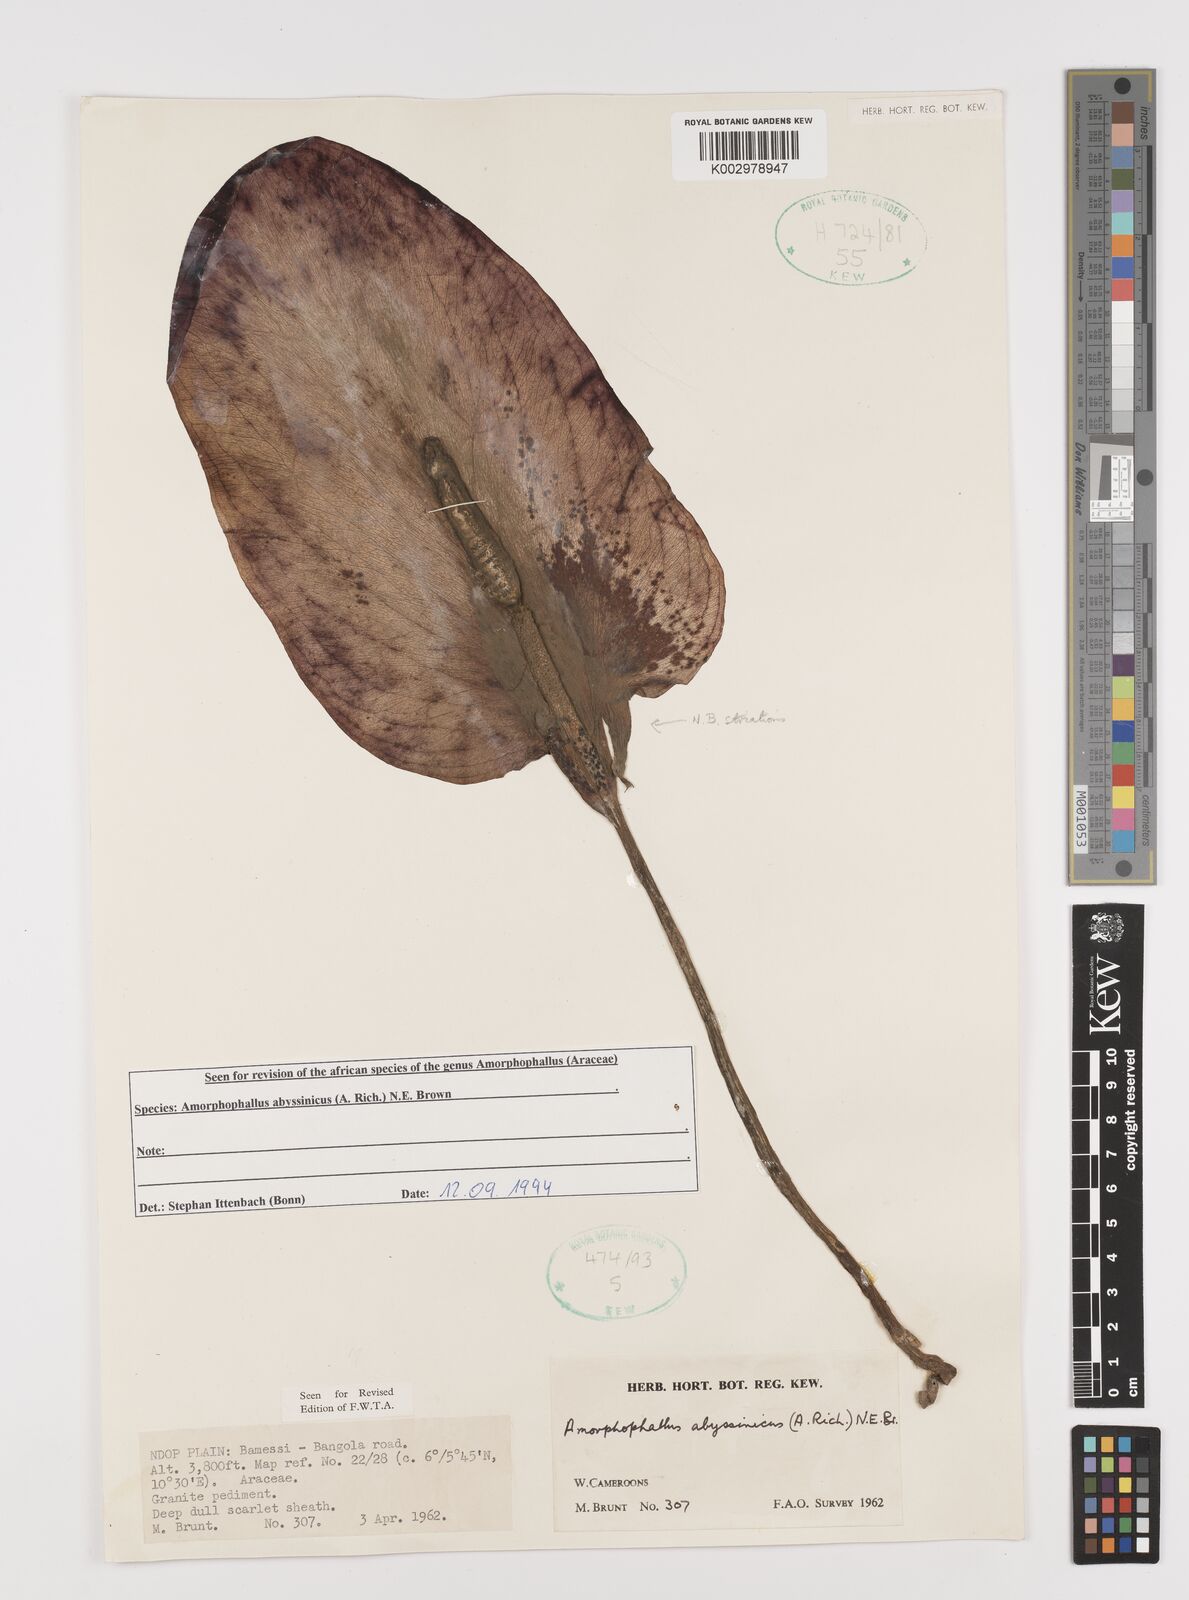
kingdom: Plantae
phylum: Tracheophyta
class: Liliopsida
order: Alismatales
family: Araceae
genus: Amorphophallus
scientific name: Amorphophallus abyssinicus
